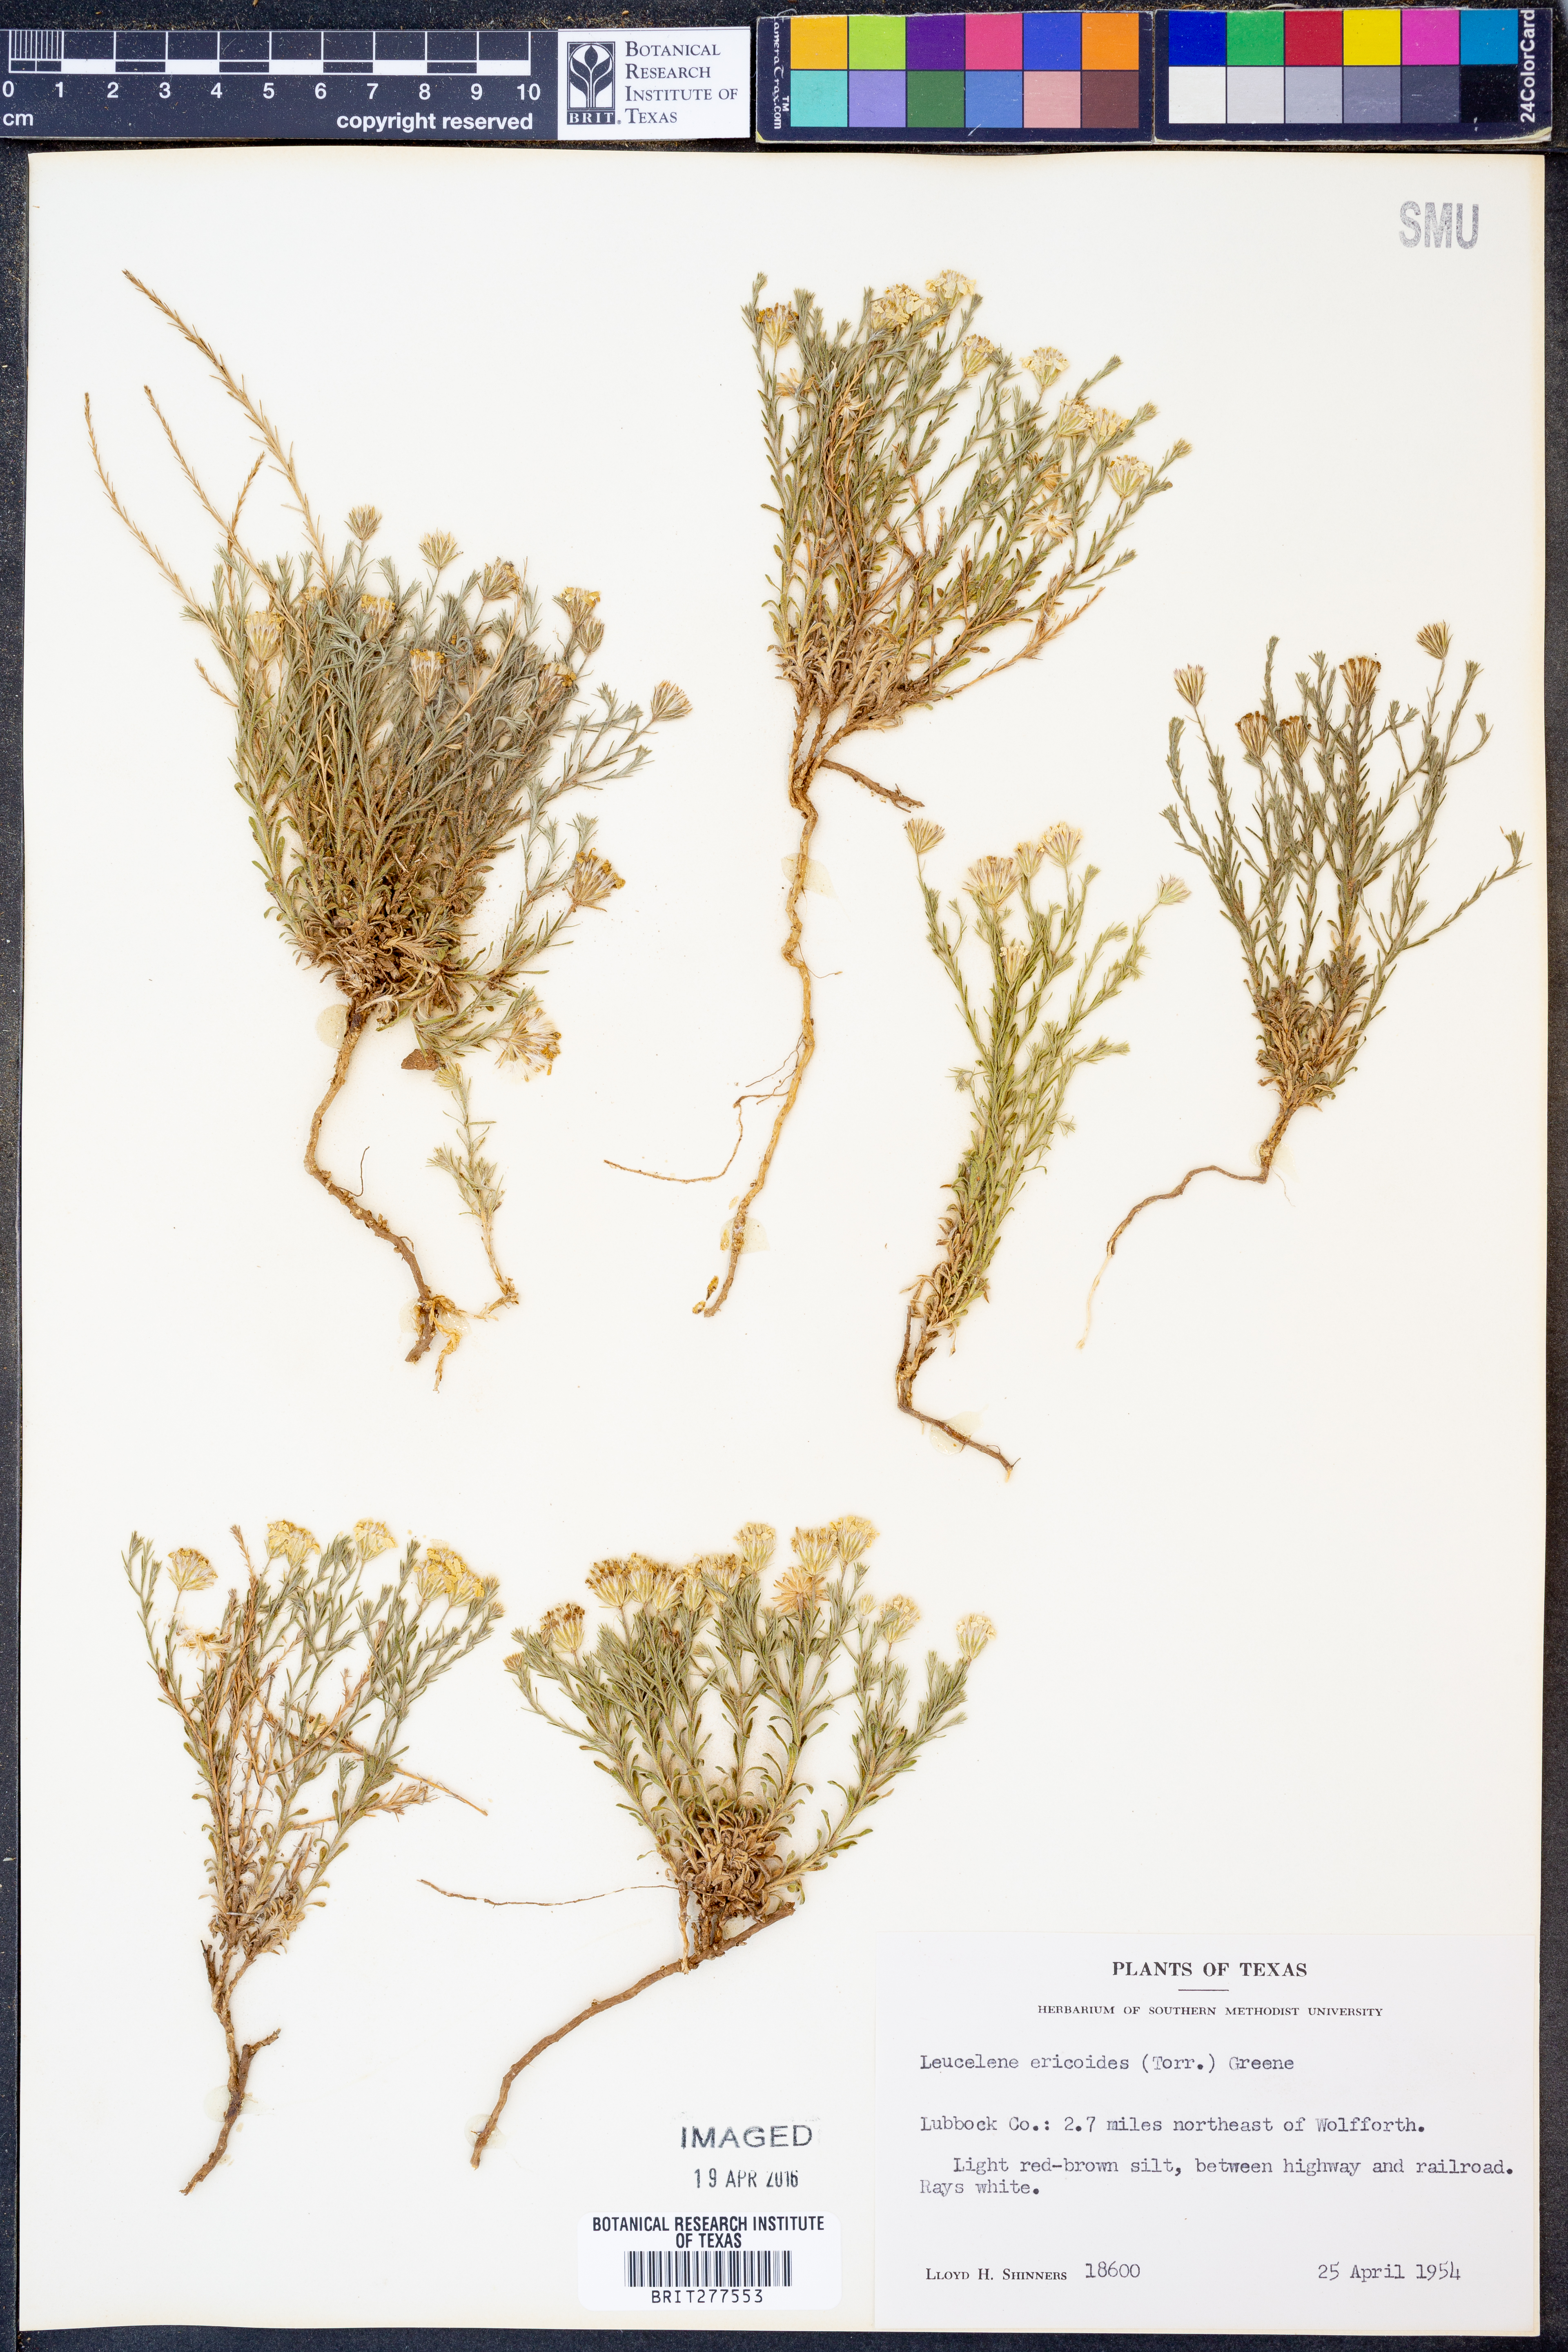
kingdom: Plantae
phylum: Tracheophyta
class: Magnoliopsida
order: Asterales
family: Asteraceae
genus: Chaetopappa
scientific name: Chaetopappa ericoides
